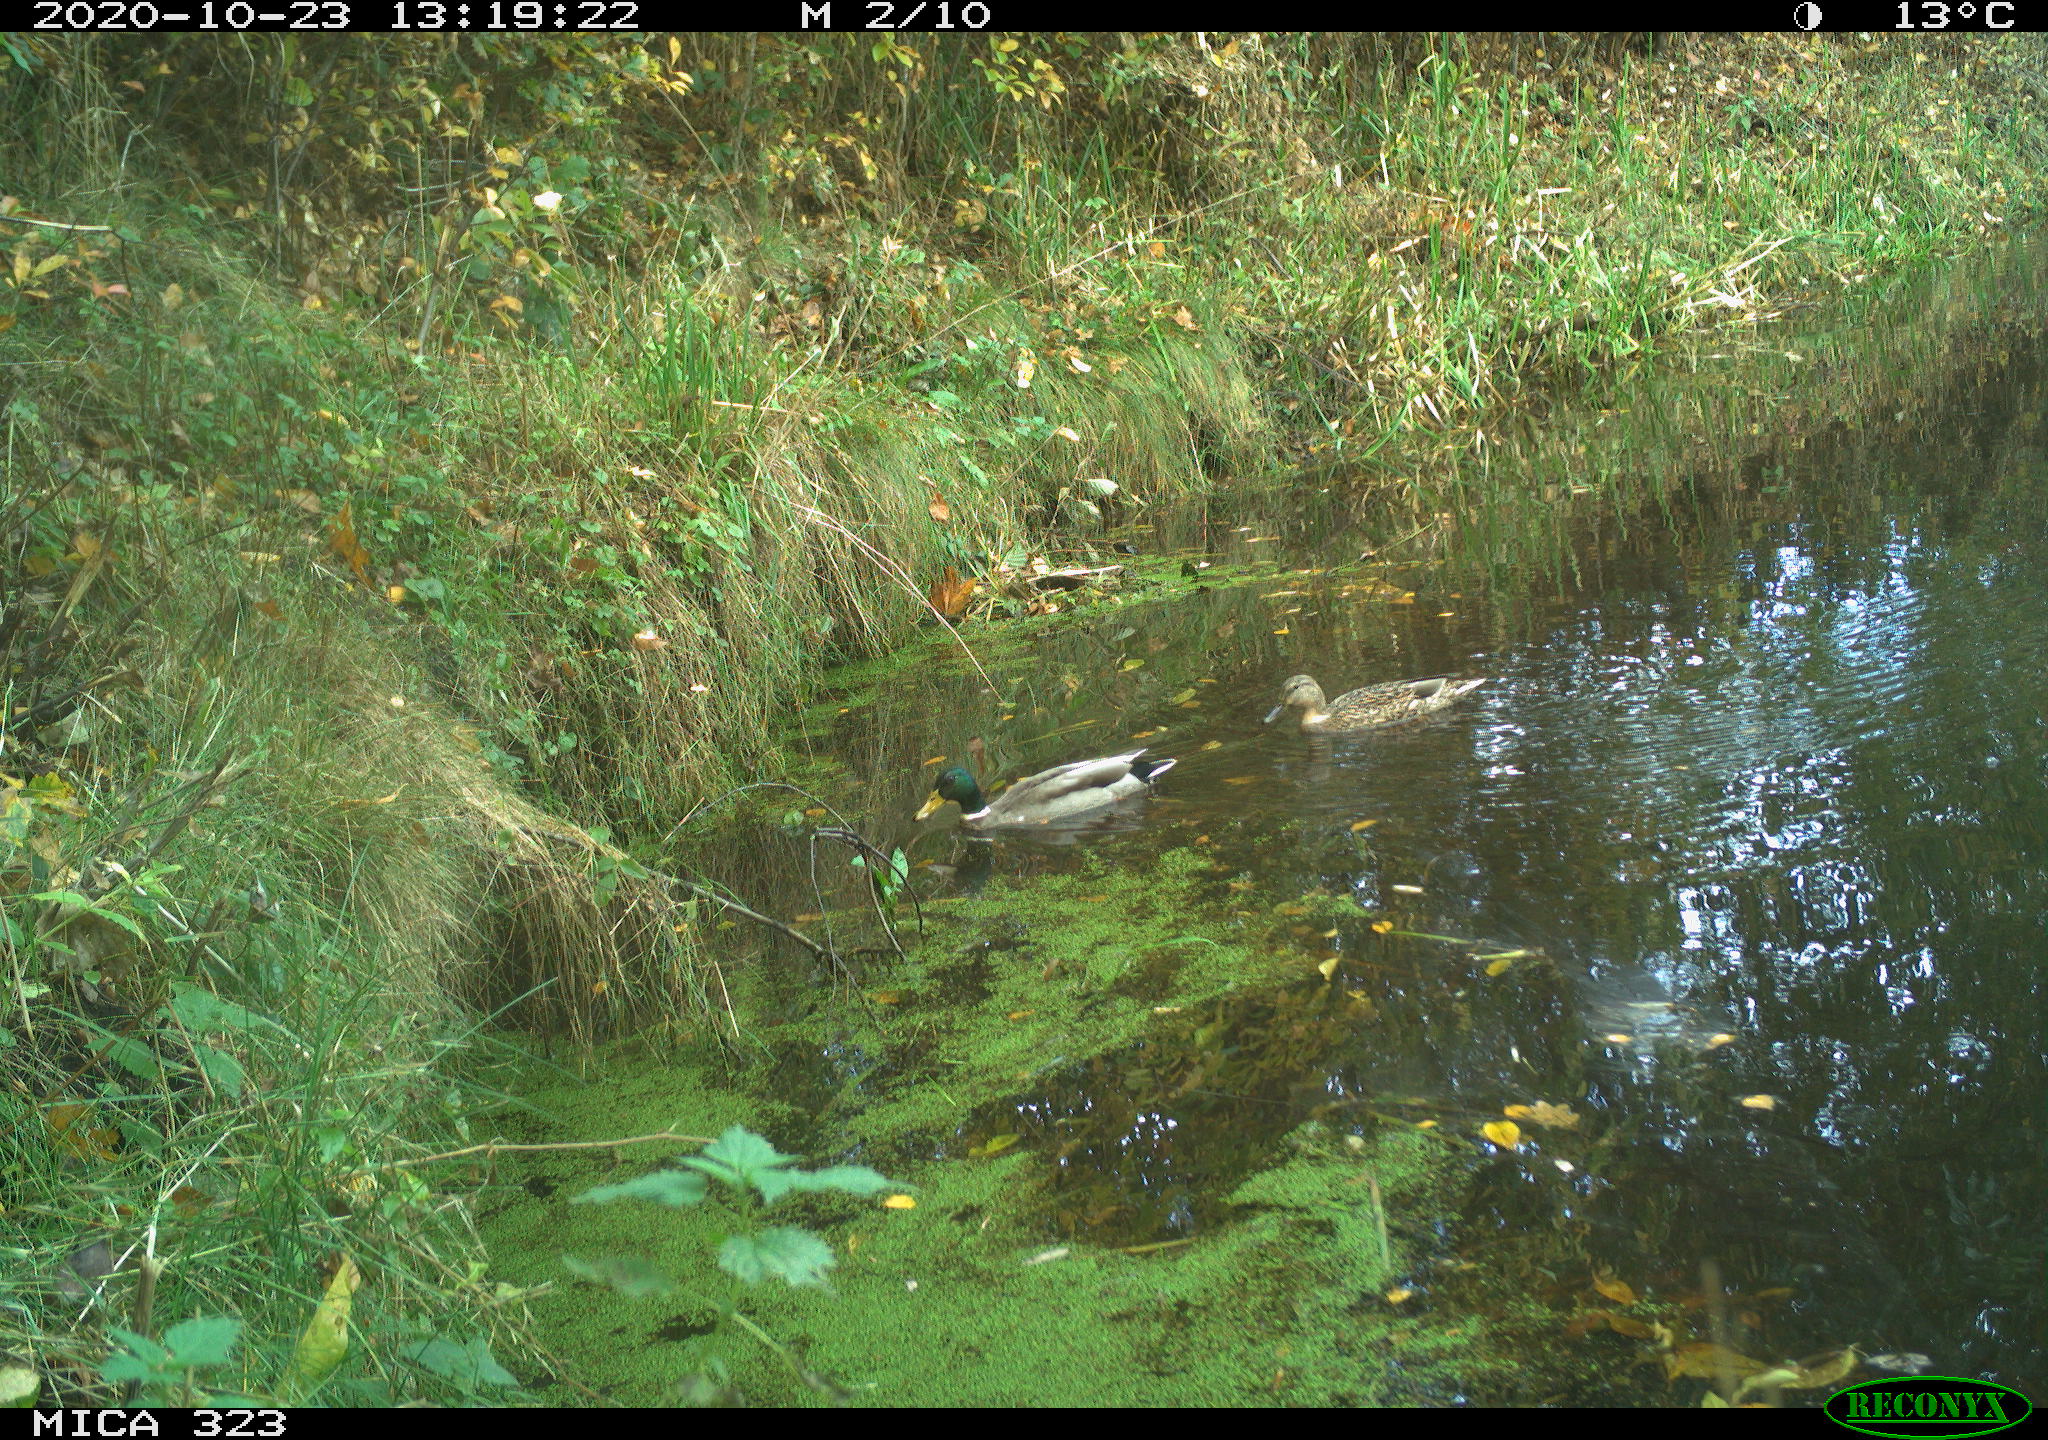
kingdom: Animalia
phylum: Chordata
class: Aves
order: Anseriformes
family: Anatidae
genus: Anas
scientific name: Anas platyrhynchos
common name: Mallard
